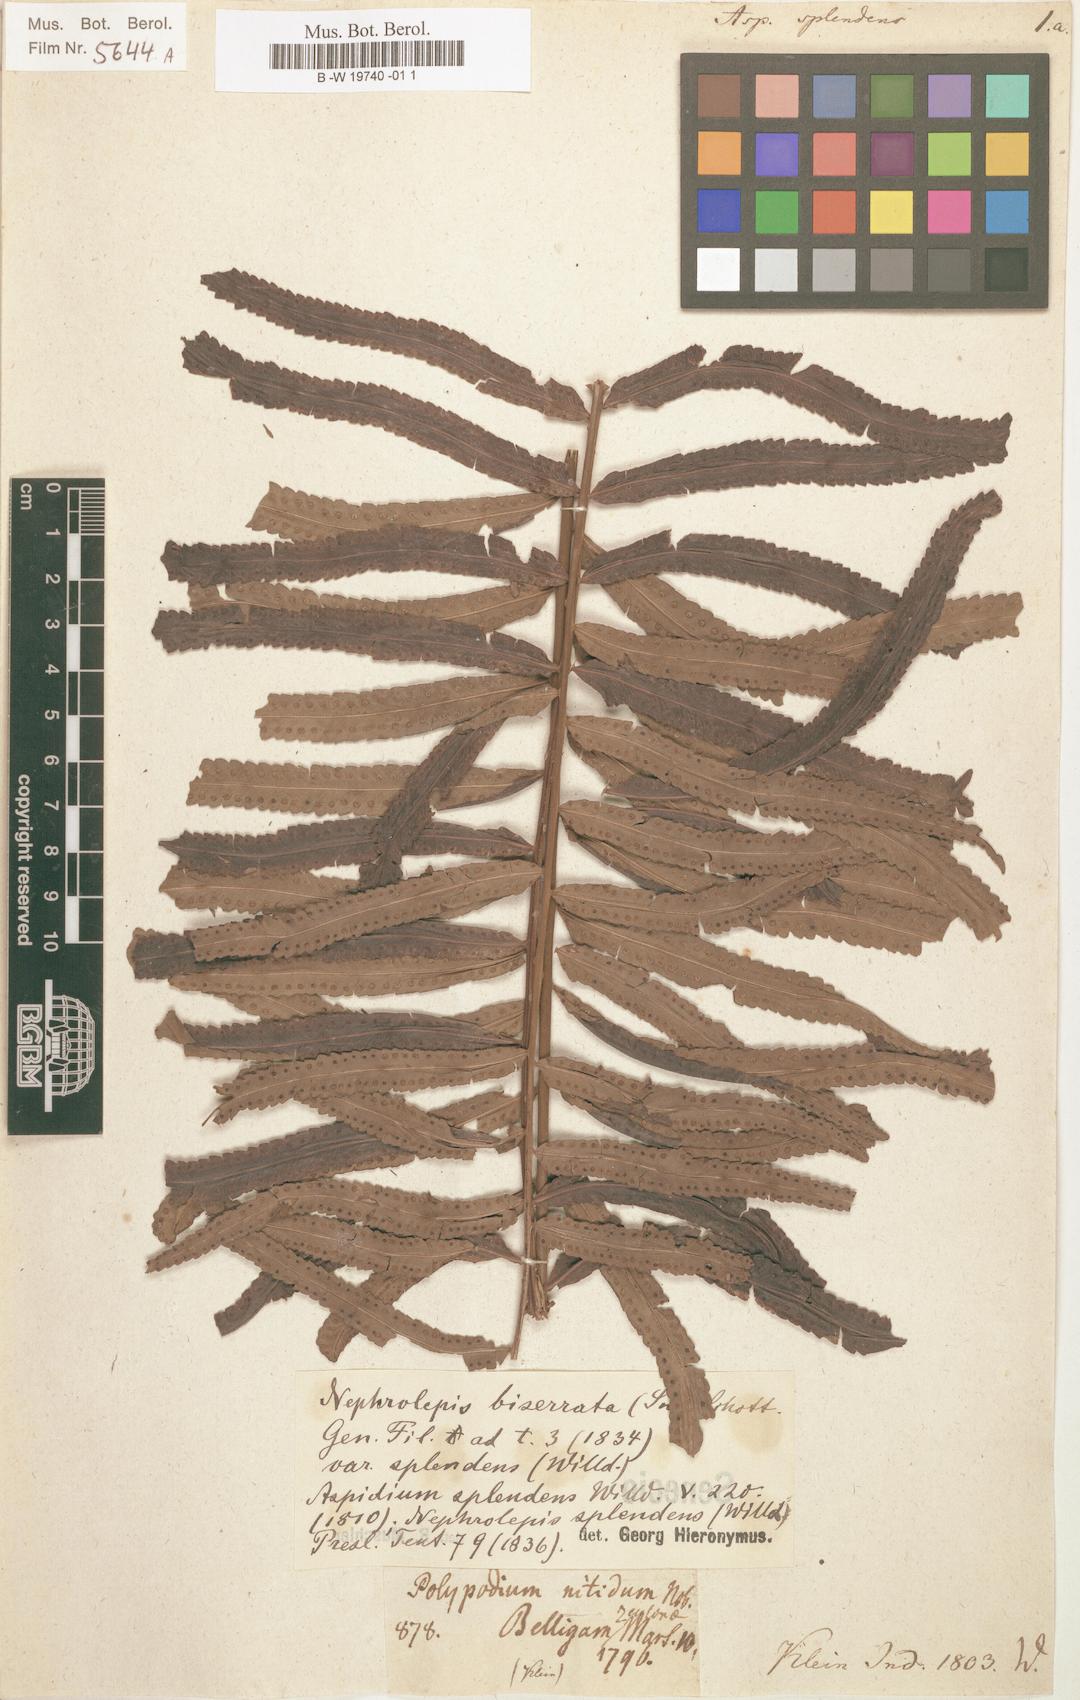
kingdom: Plantae
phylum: Tracheophyta
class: Polypodiopsida
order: Polypodiales
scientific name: Polypodiales
